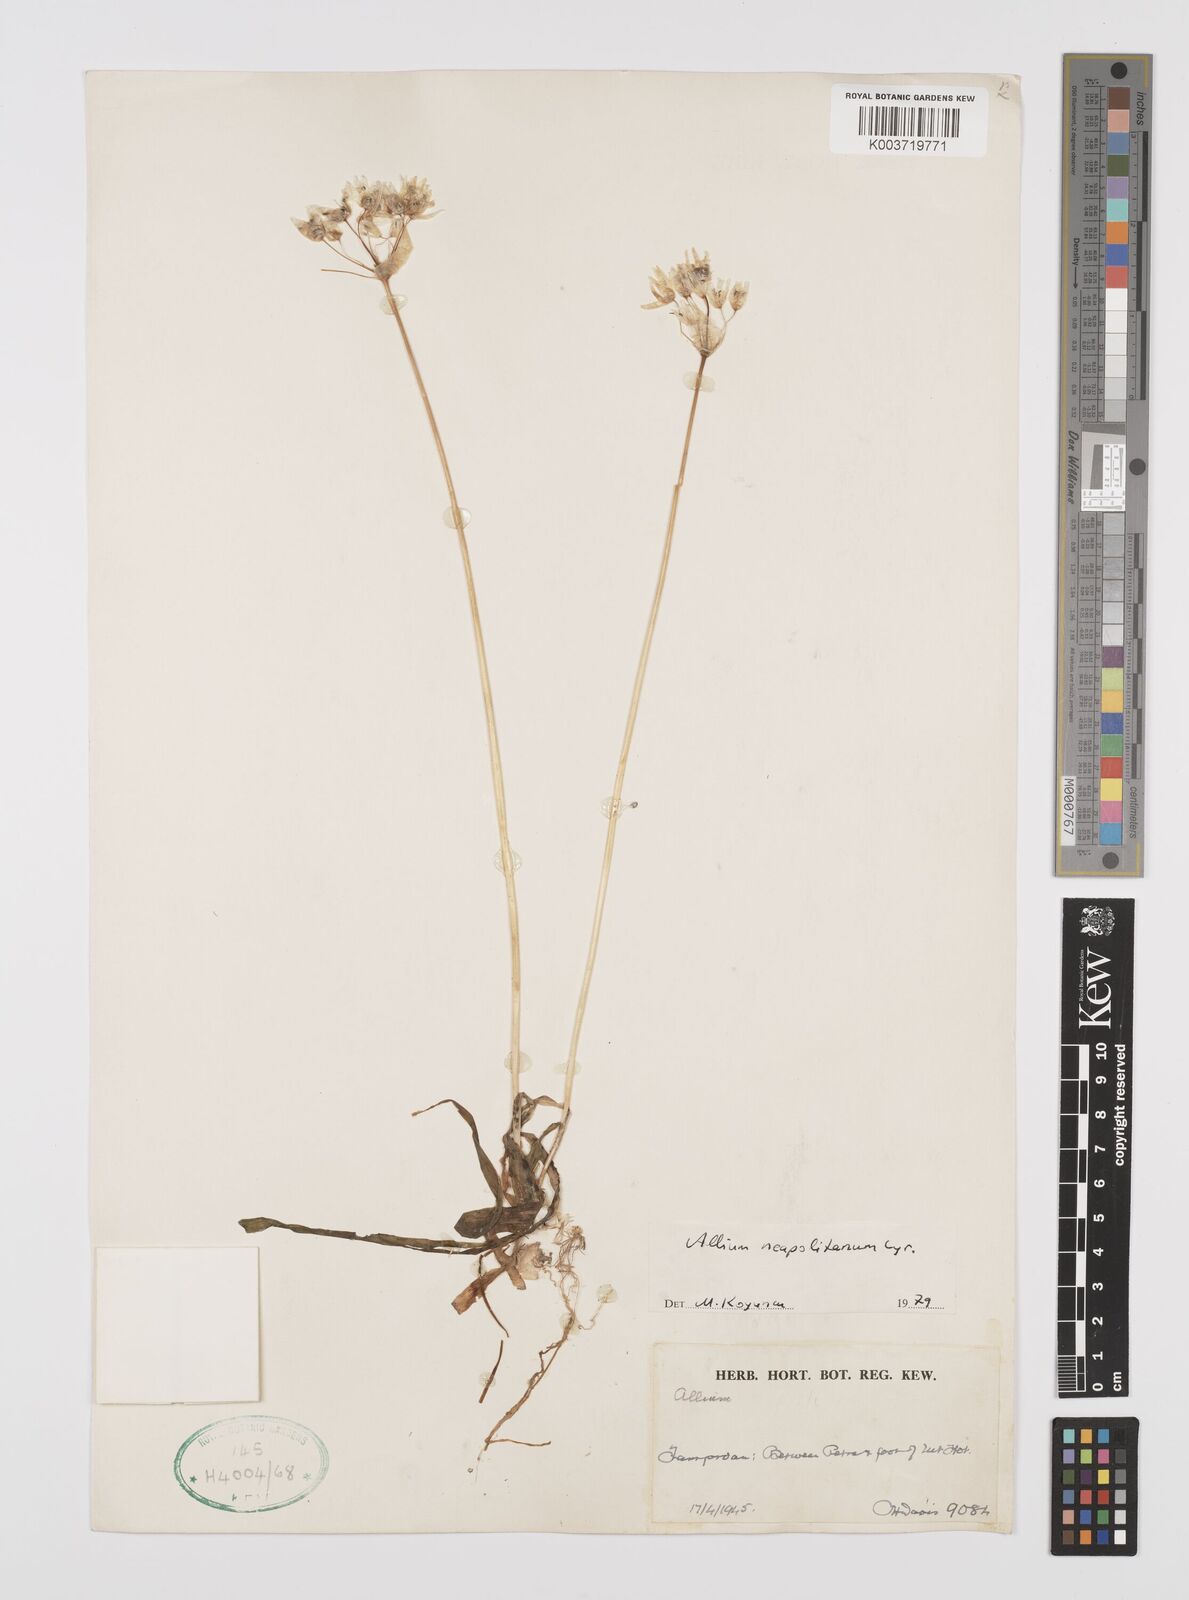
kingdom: Plantae
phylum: Tracheophyta
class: Liliopsida
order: Asparagales
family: Amaryllidaceae
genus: Allium
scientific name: Allium neapolitanum
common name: Neapolitan garlic
